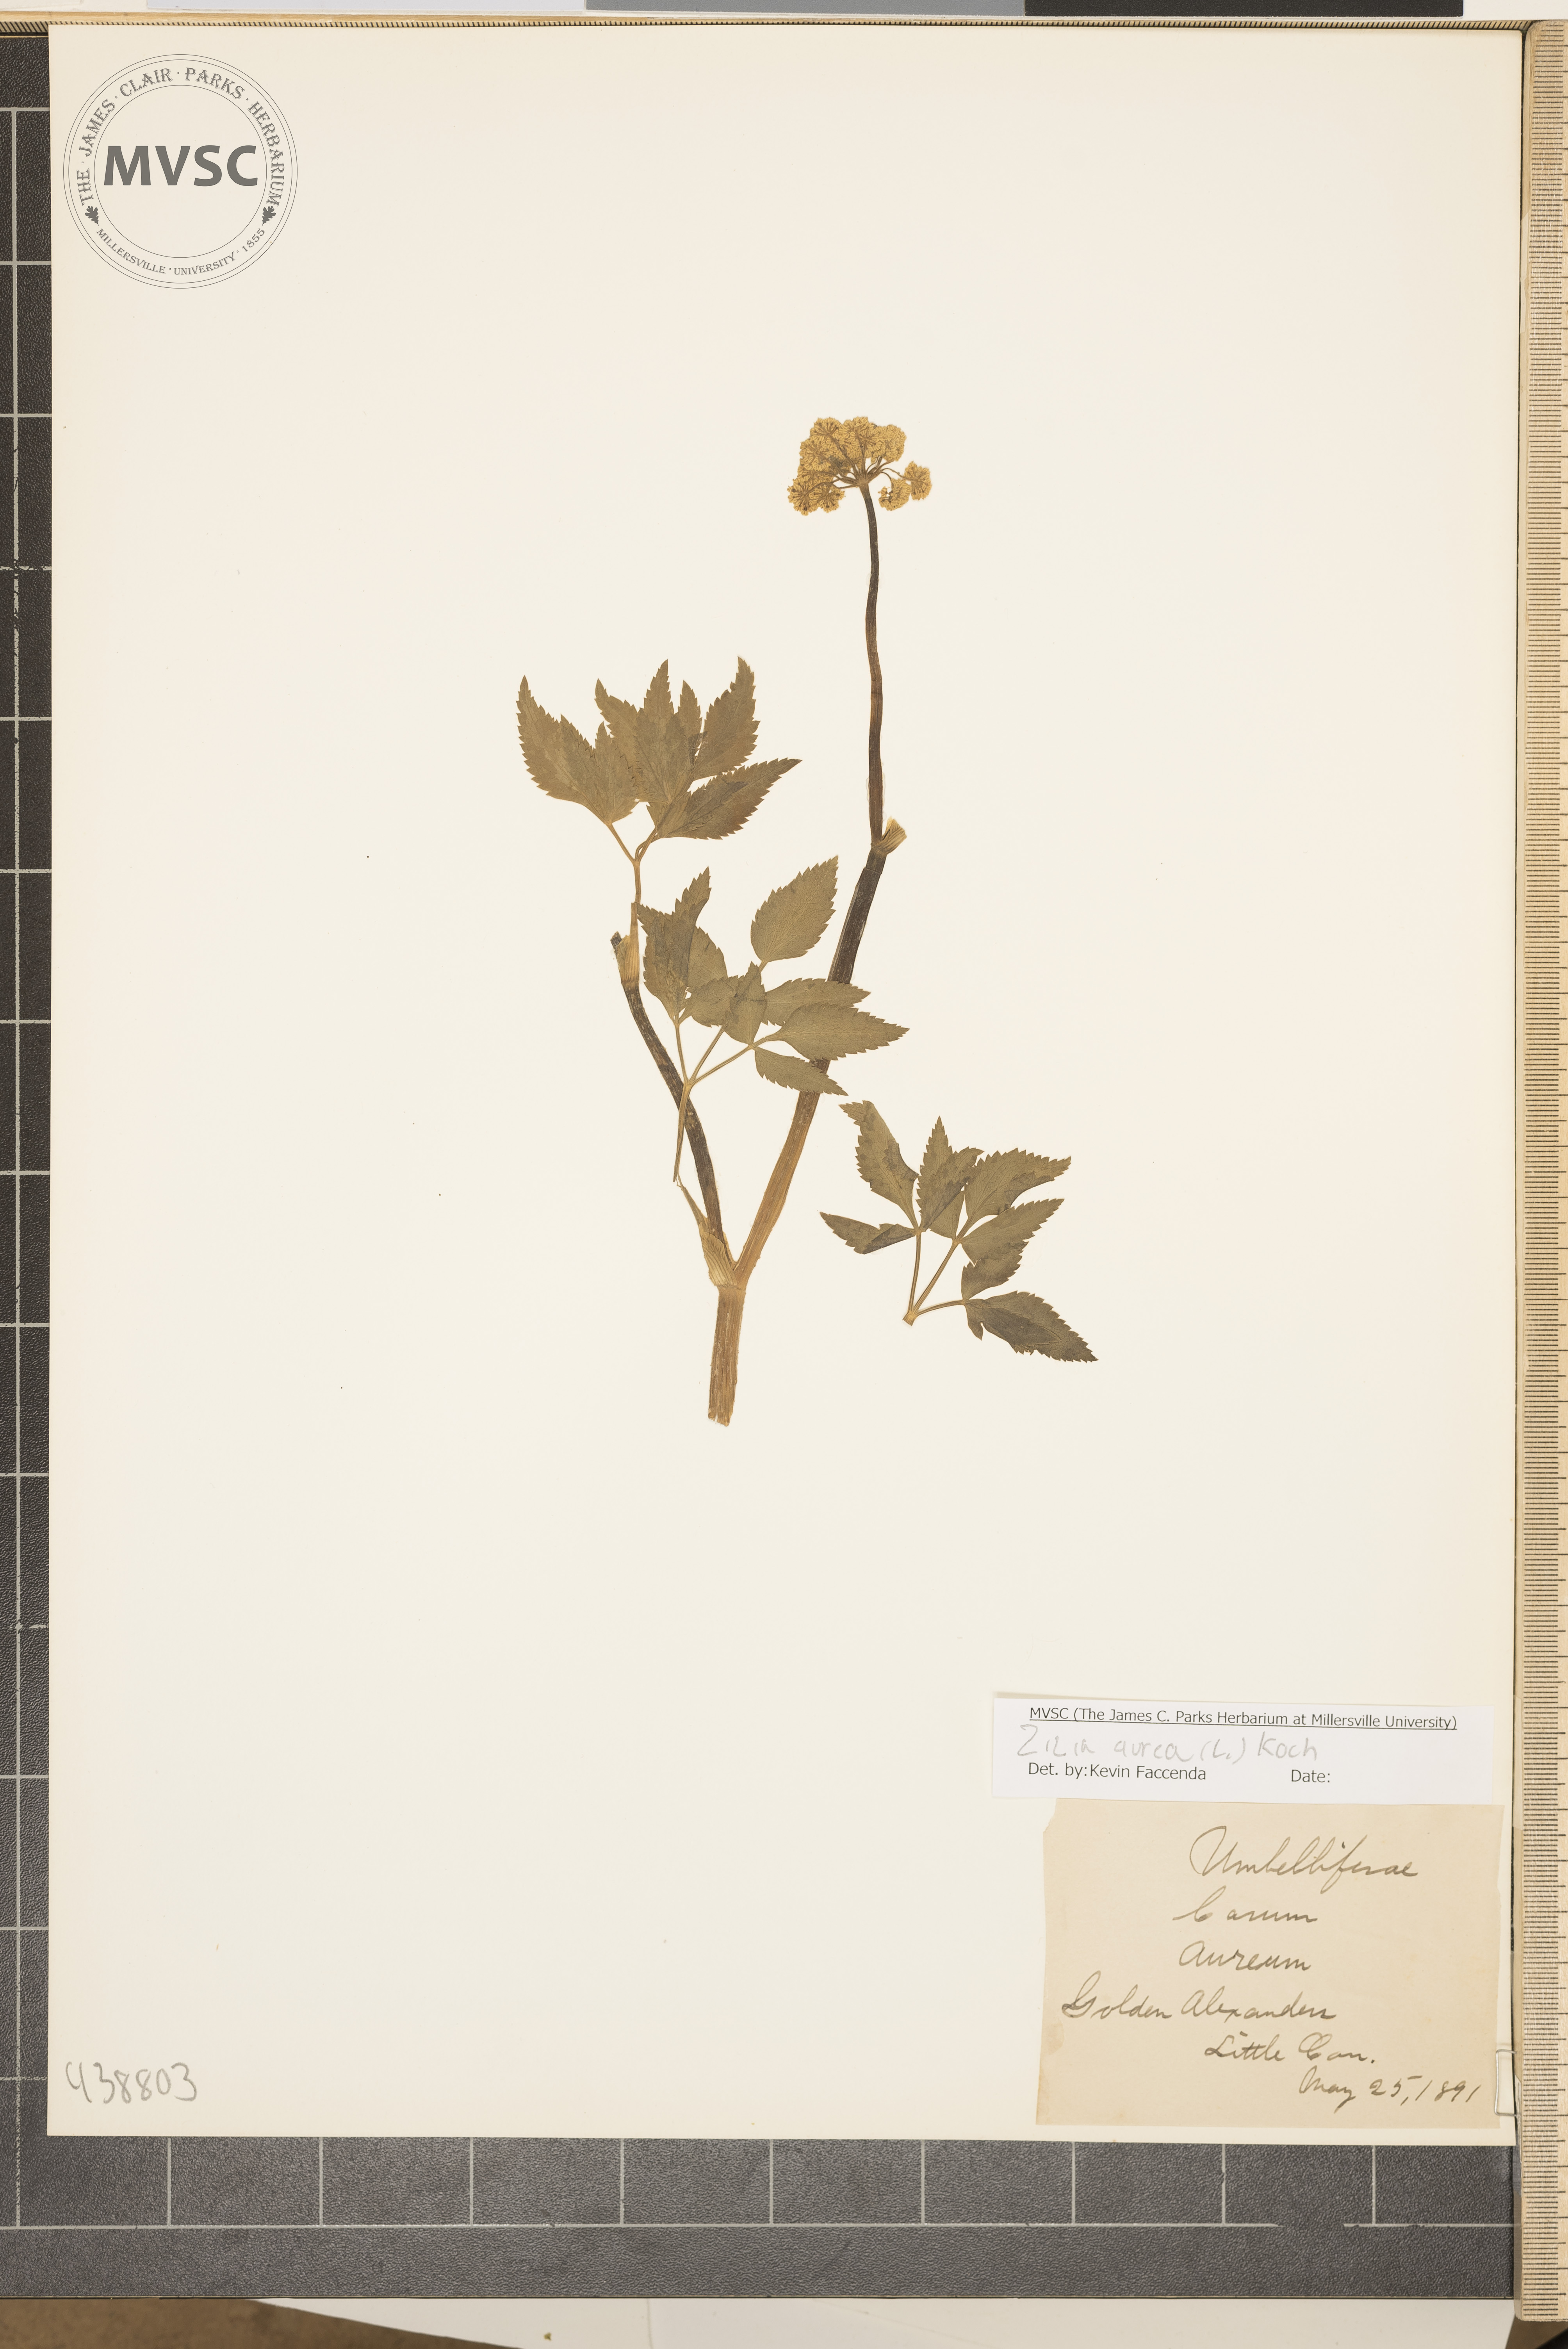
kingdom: Plantae
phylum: Tracheophyta
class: Magnoliopsida
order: Apiales
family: Apiaceae
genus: Zizia
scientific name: Zizia aurea
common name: Golden alexanders
